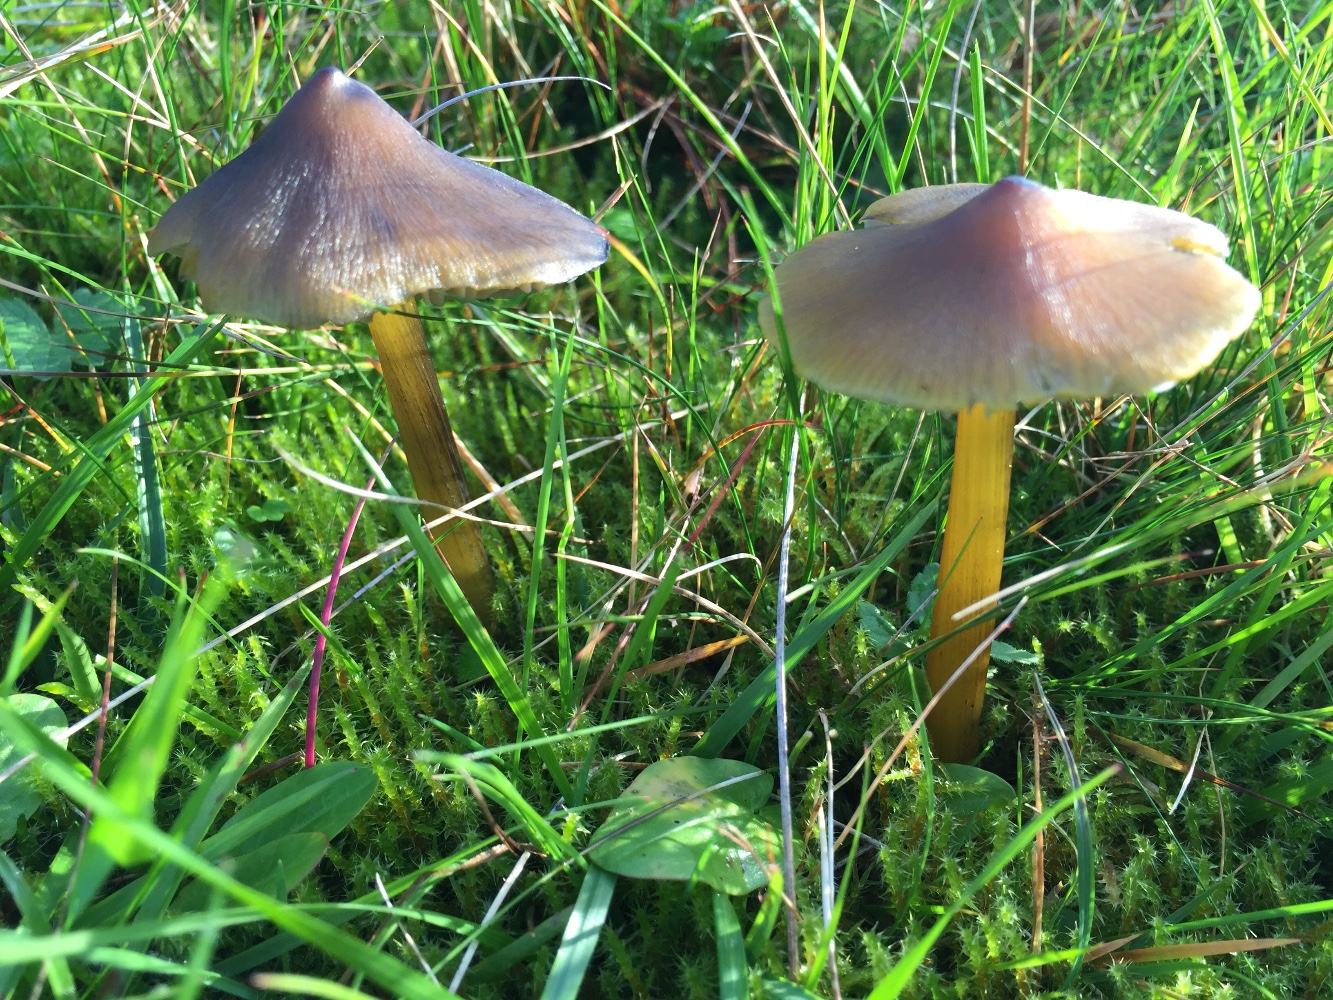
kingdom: Fungi
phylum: Basidiomycota
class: Agaricomycetes
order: Agaricales
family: Hygrophoraceae
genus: Hygrocybe
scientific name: Hygrocybe conica
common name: kegle-vokshat
